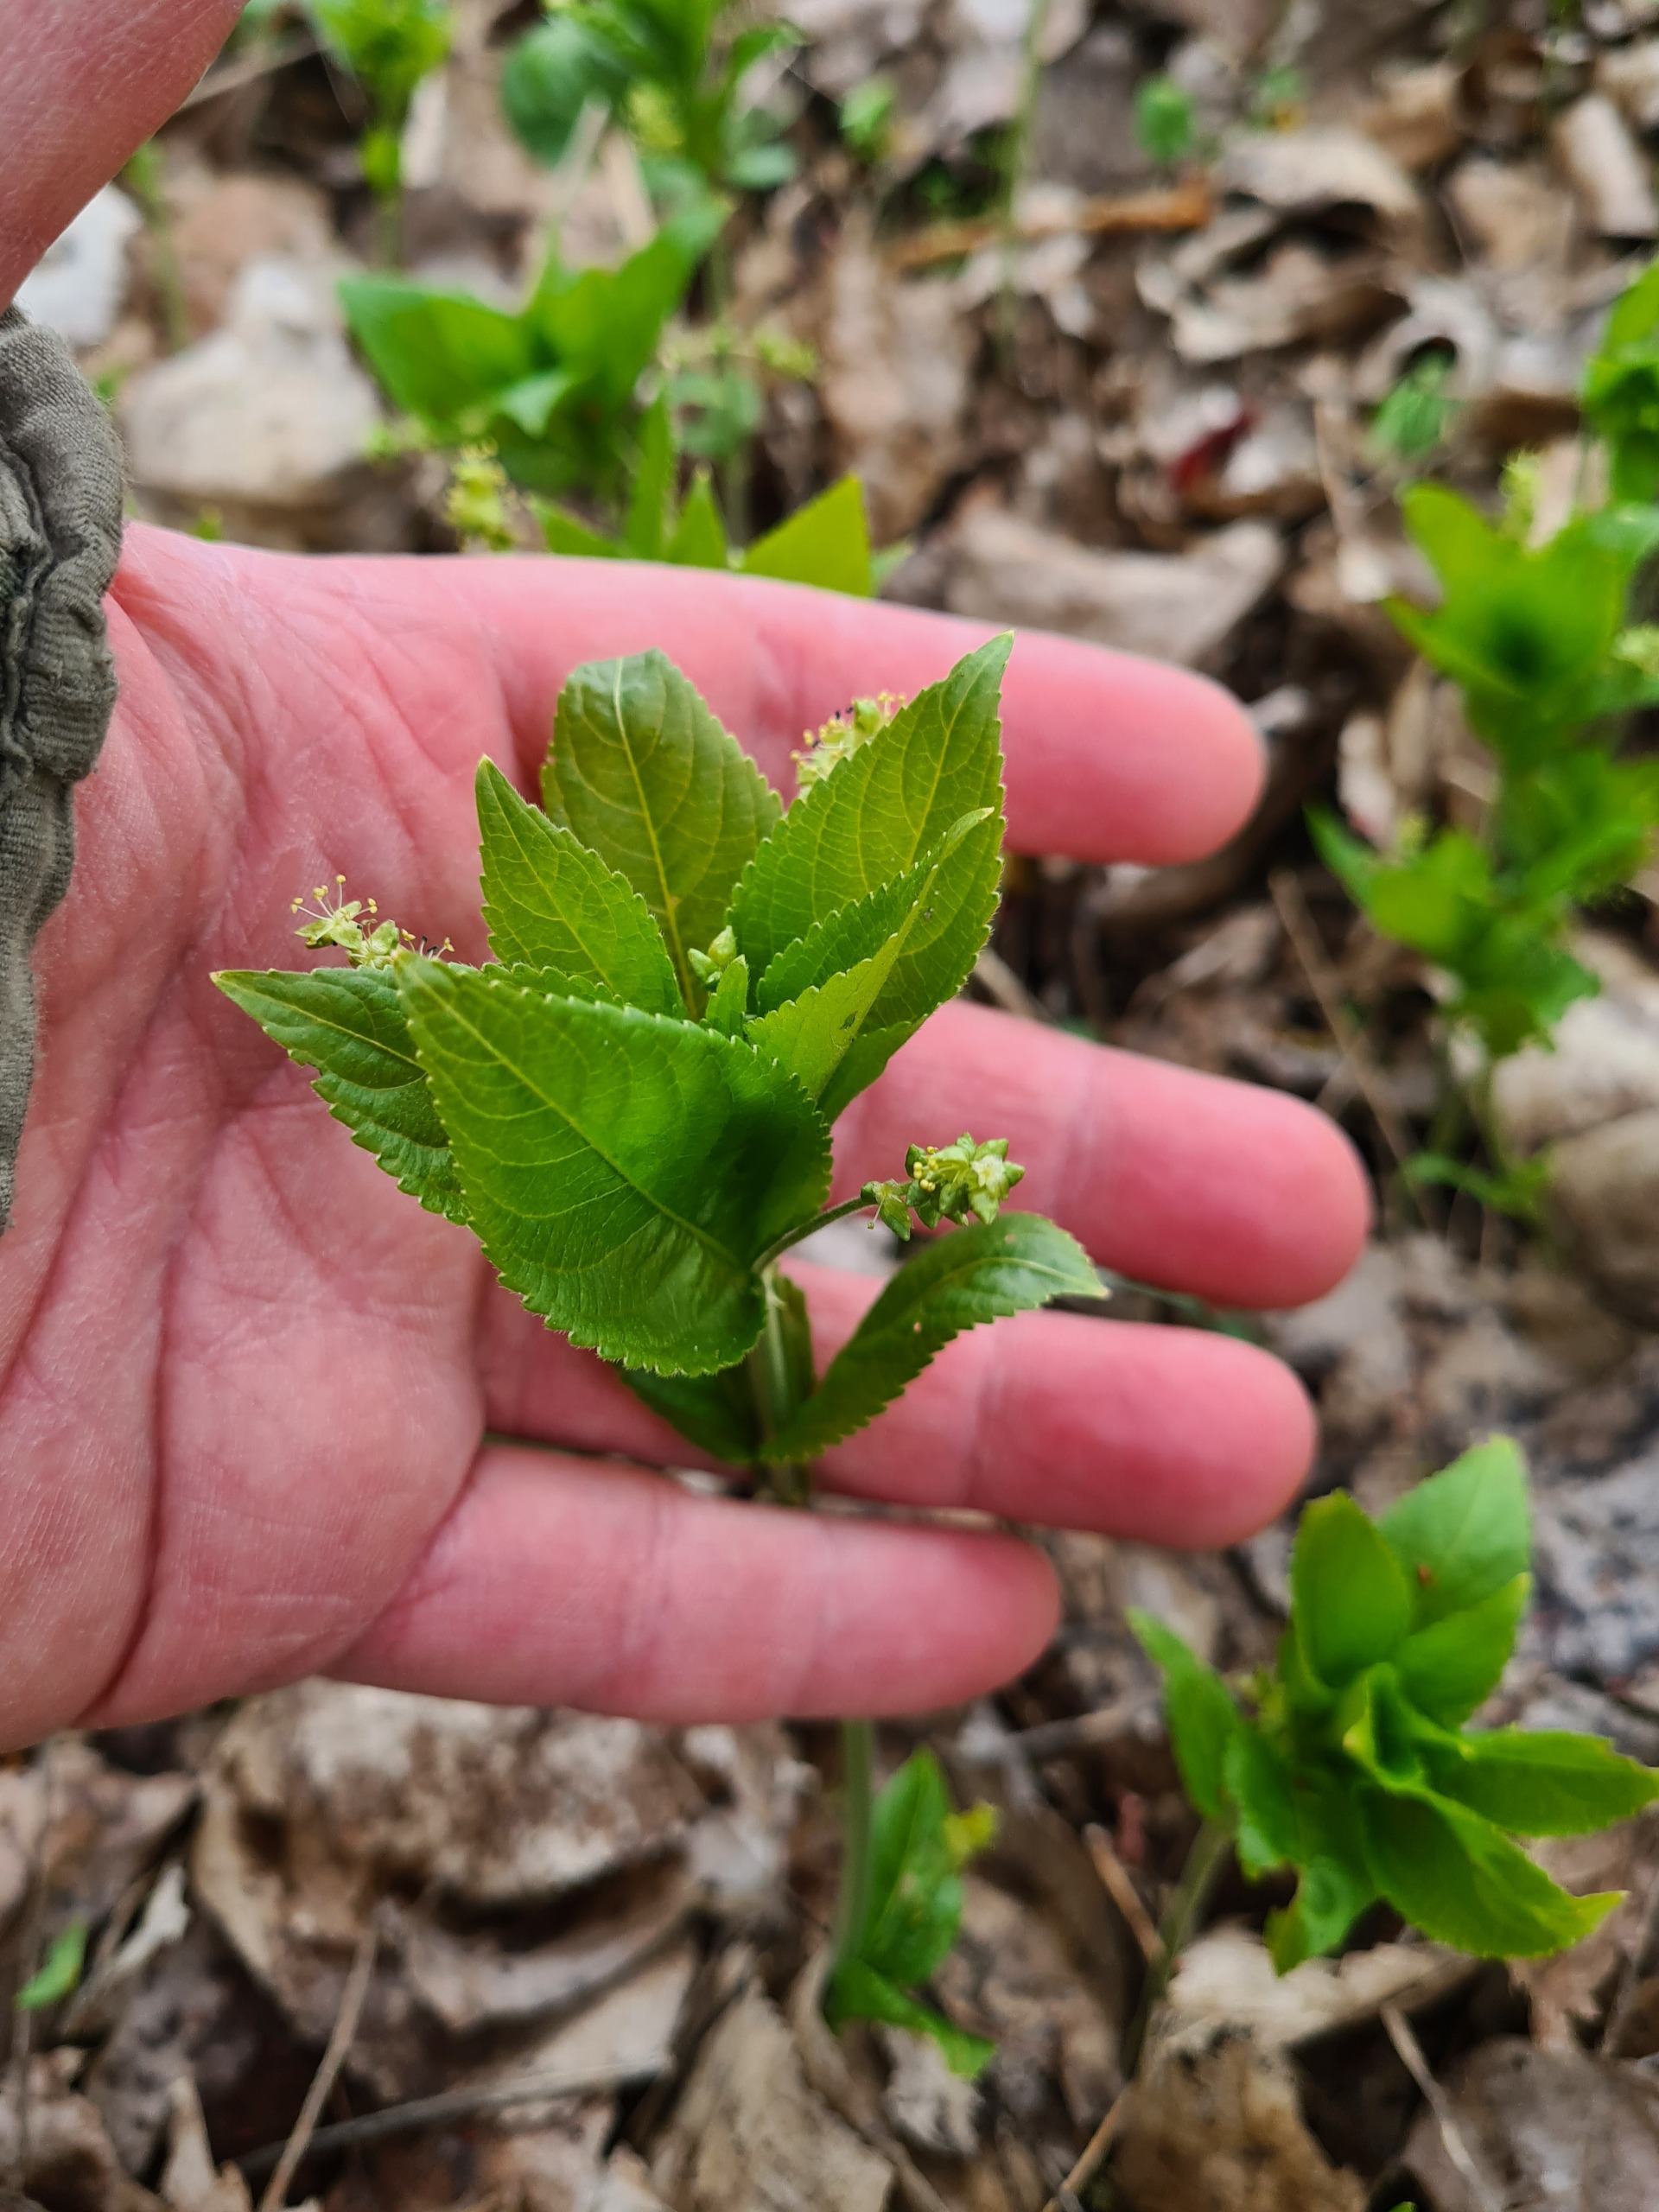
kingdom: Plantae
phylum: Tracheophyta
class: Magnoliopsida
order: Malpighiales
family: Euphorbiaceae
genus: Mercurialis
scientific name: Mercurialis perennis
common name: Almindelig bingelurt
